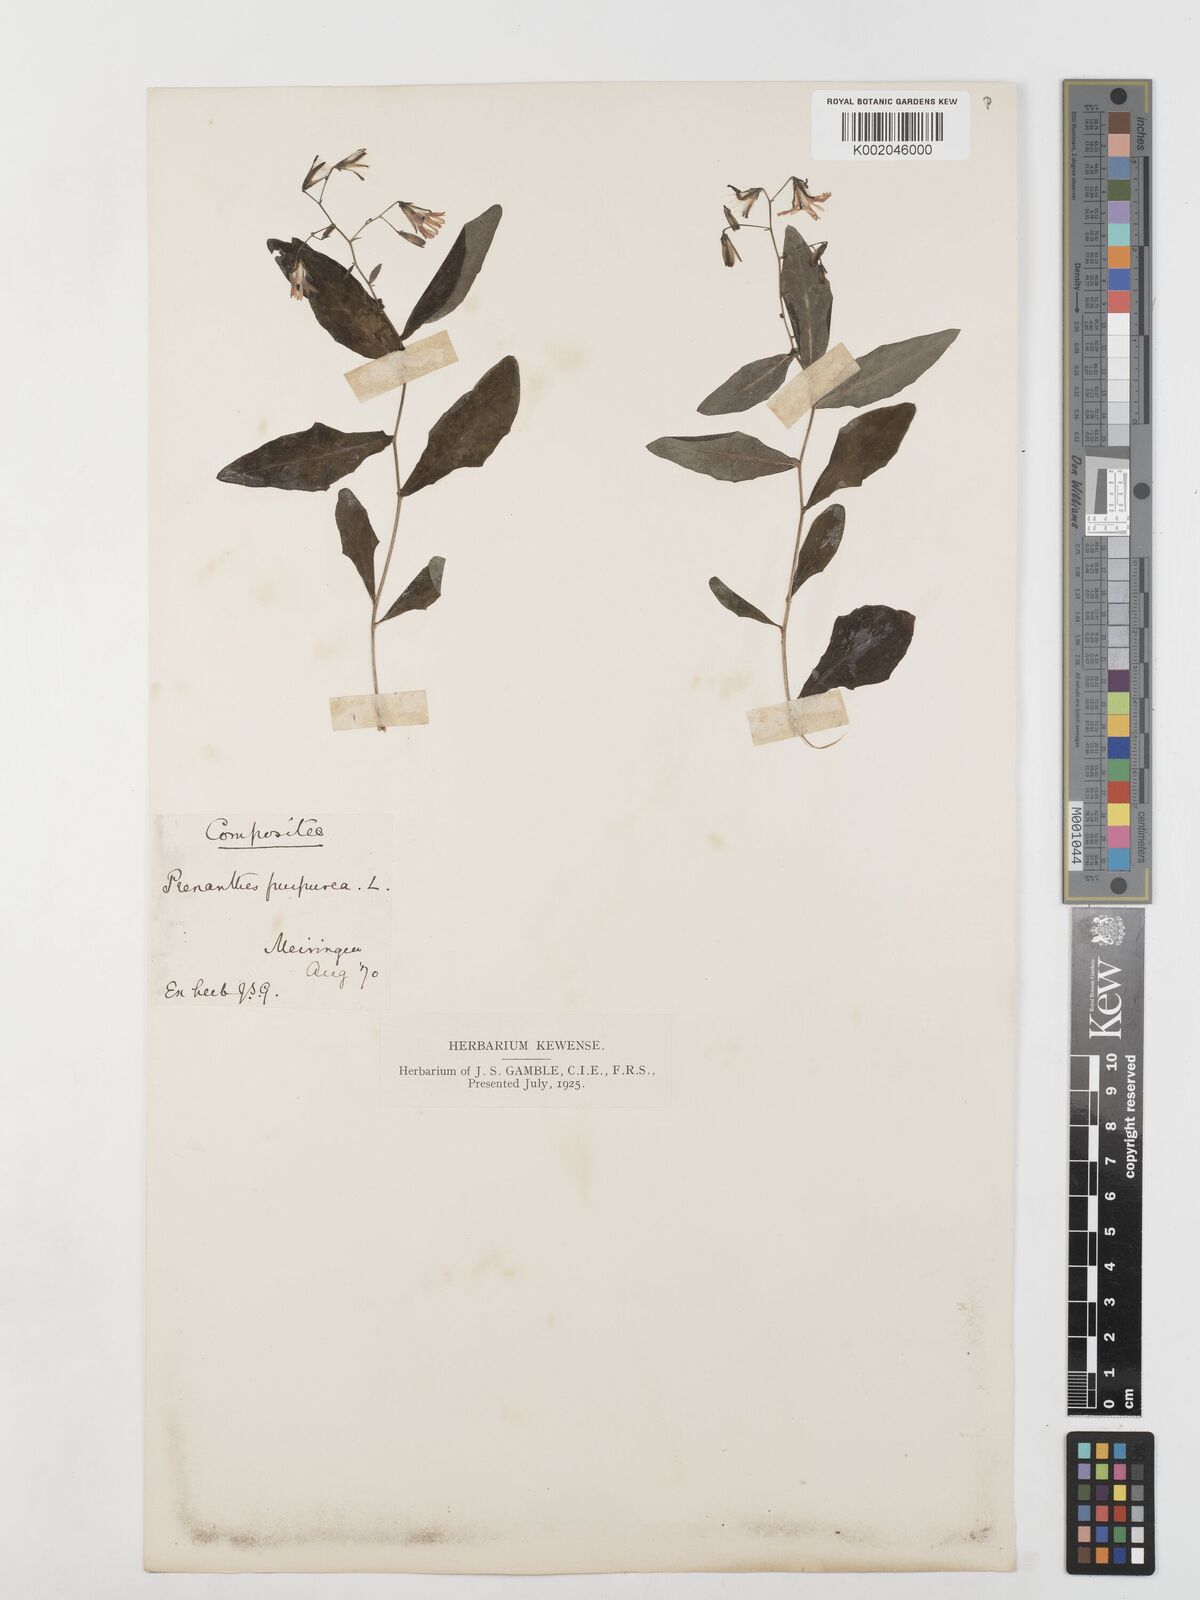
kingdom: Plantae
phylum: Tracheophyta
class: Magnoliopsida
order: Asterales
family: Asteraceae
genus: Prenanthes
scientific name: Prenanthes purpurea
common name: Purple lettuce
